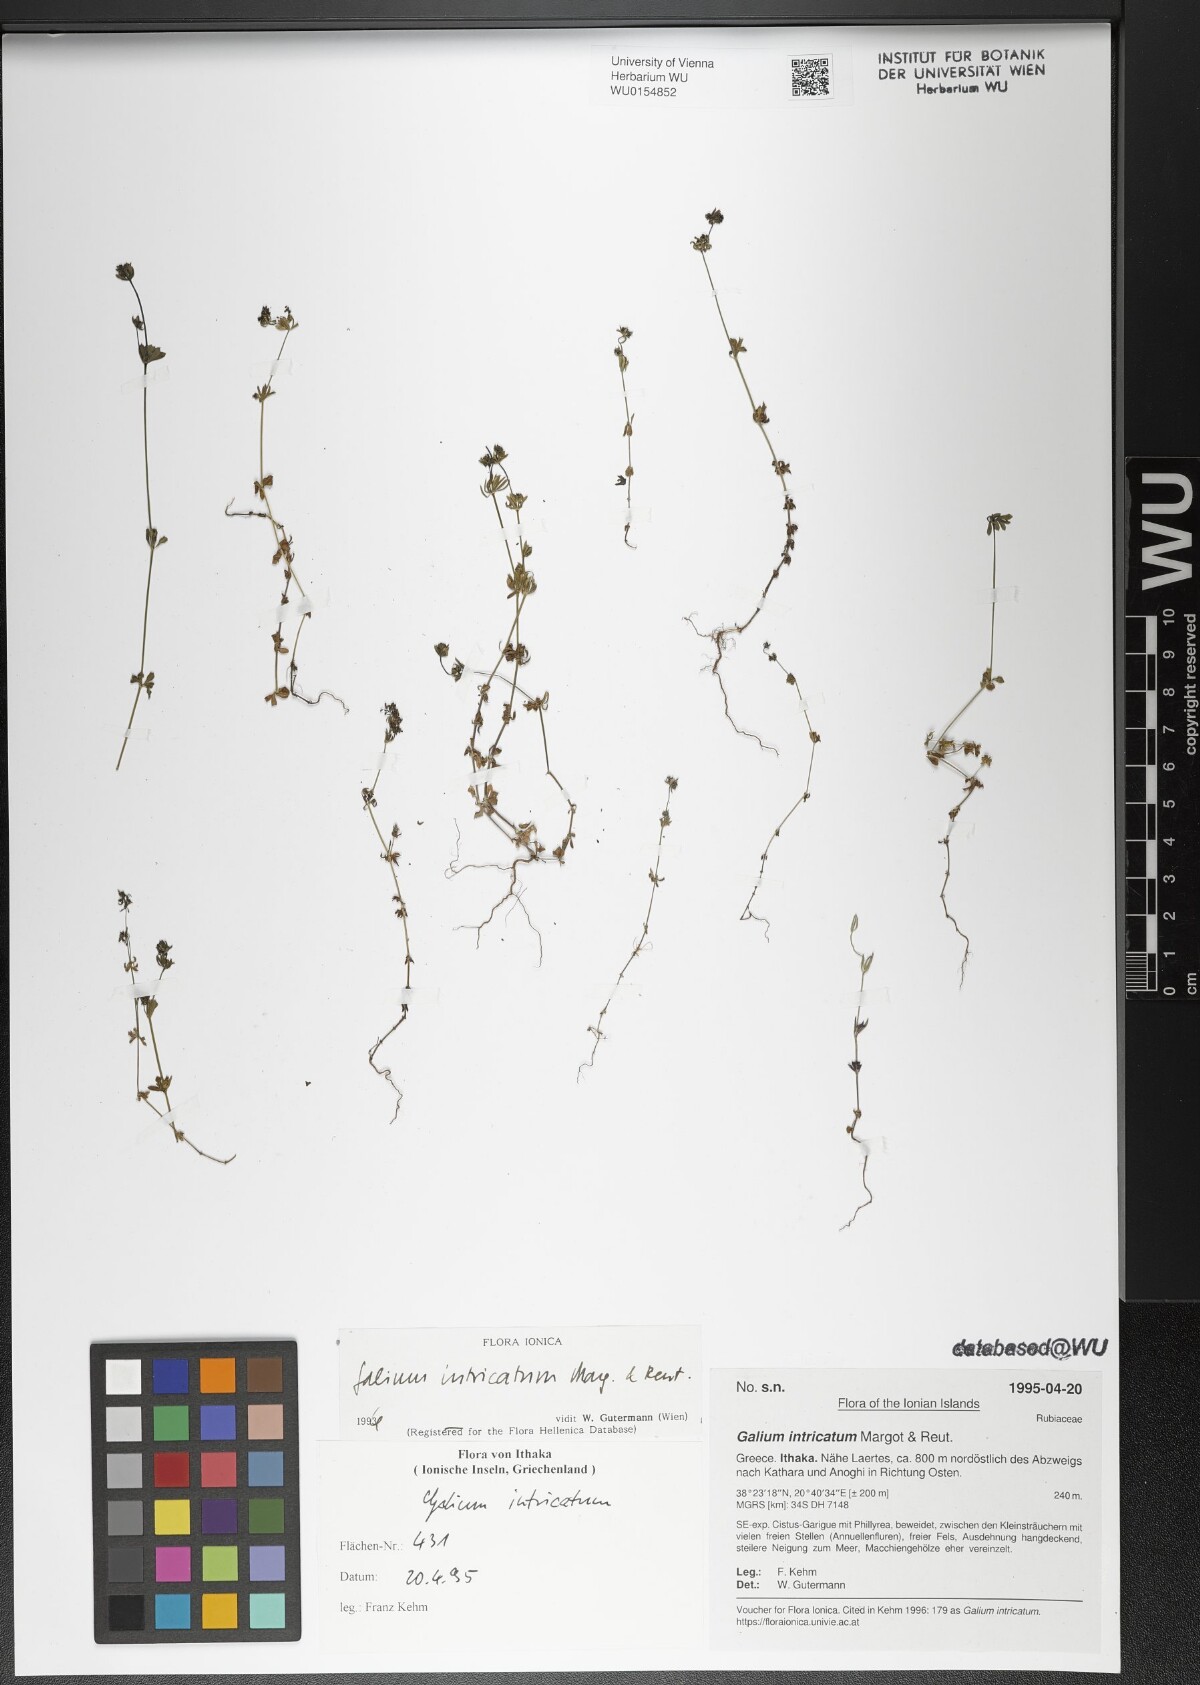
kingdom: Plantae
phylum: Tracheophyta
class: Magnoliopsida
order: Gentianales
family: Rubiaceae
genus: Galium
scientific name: Galium intricatum
